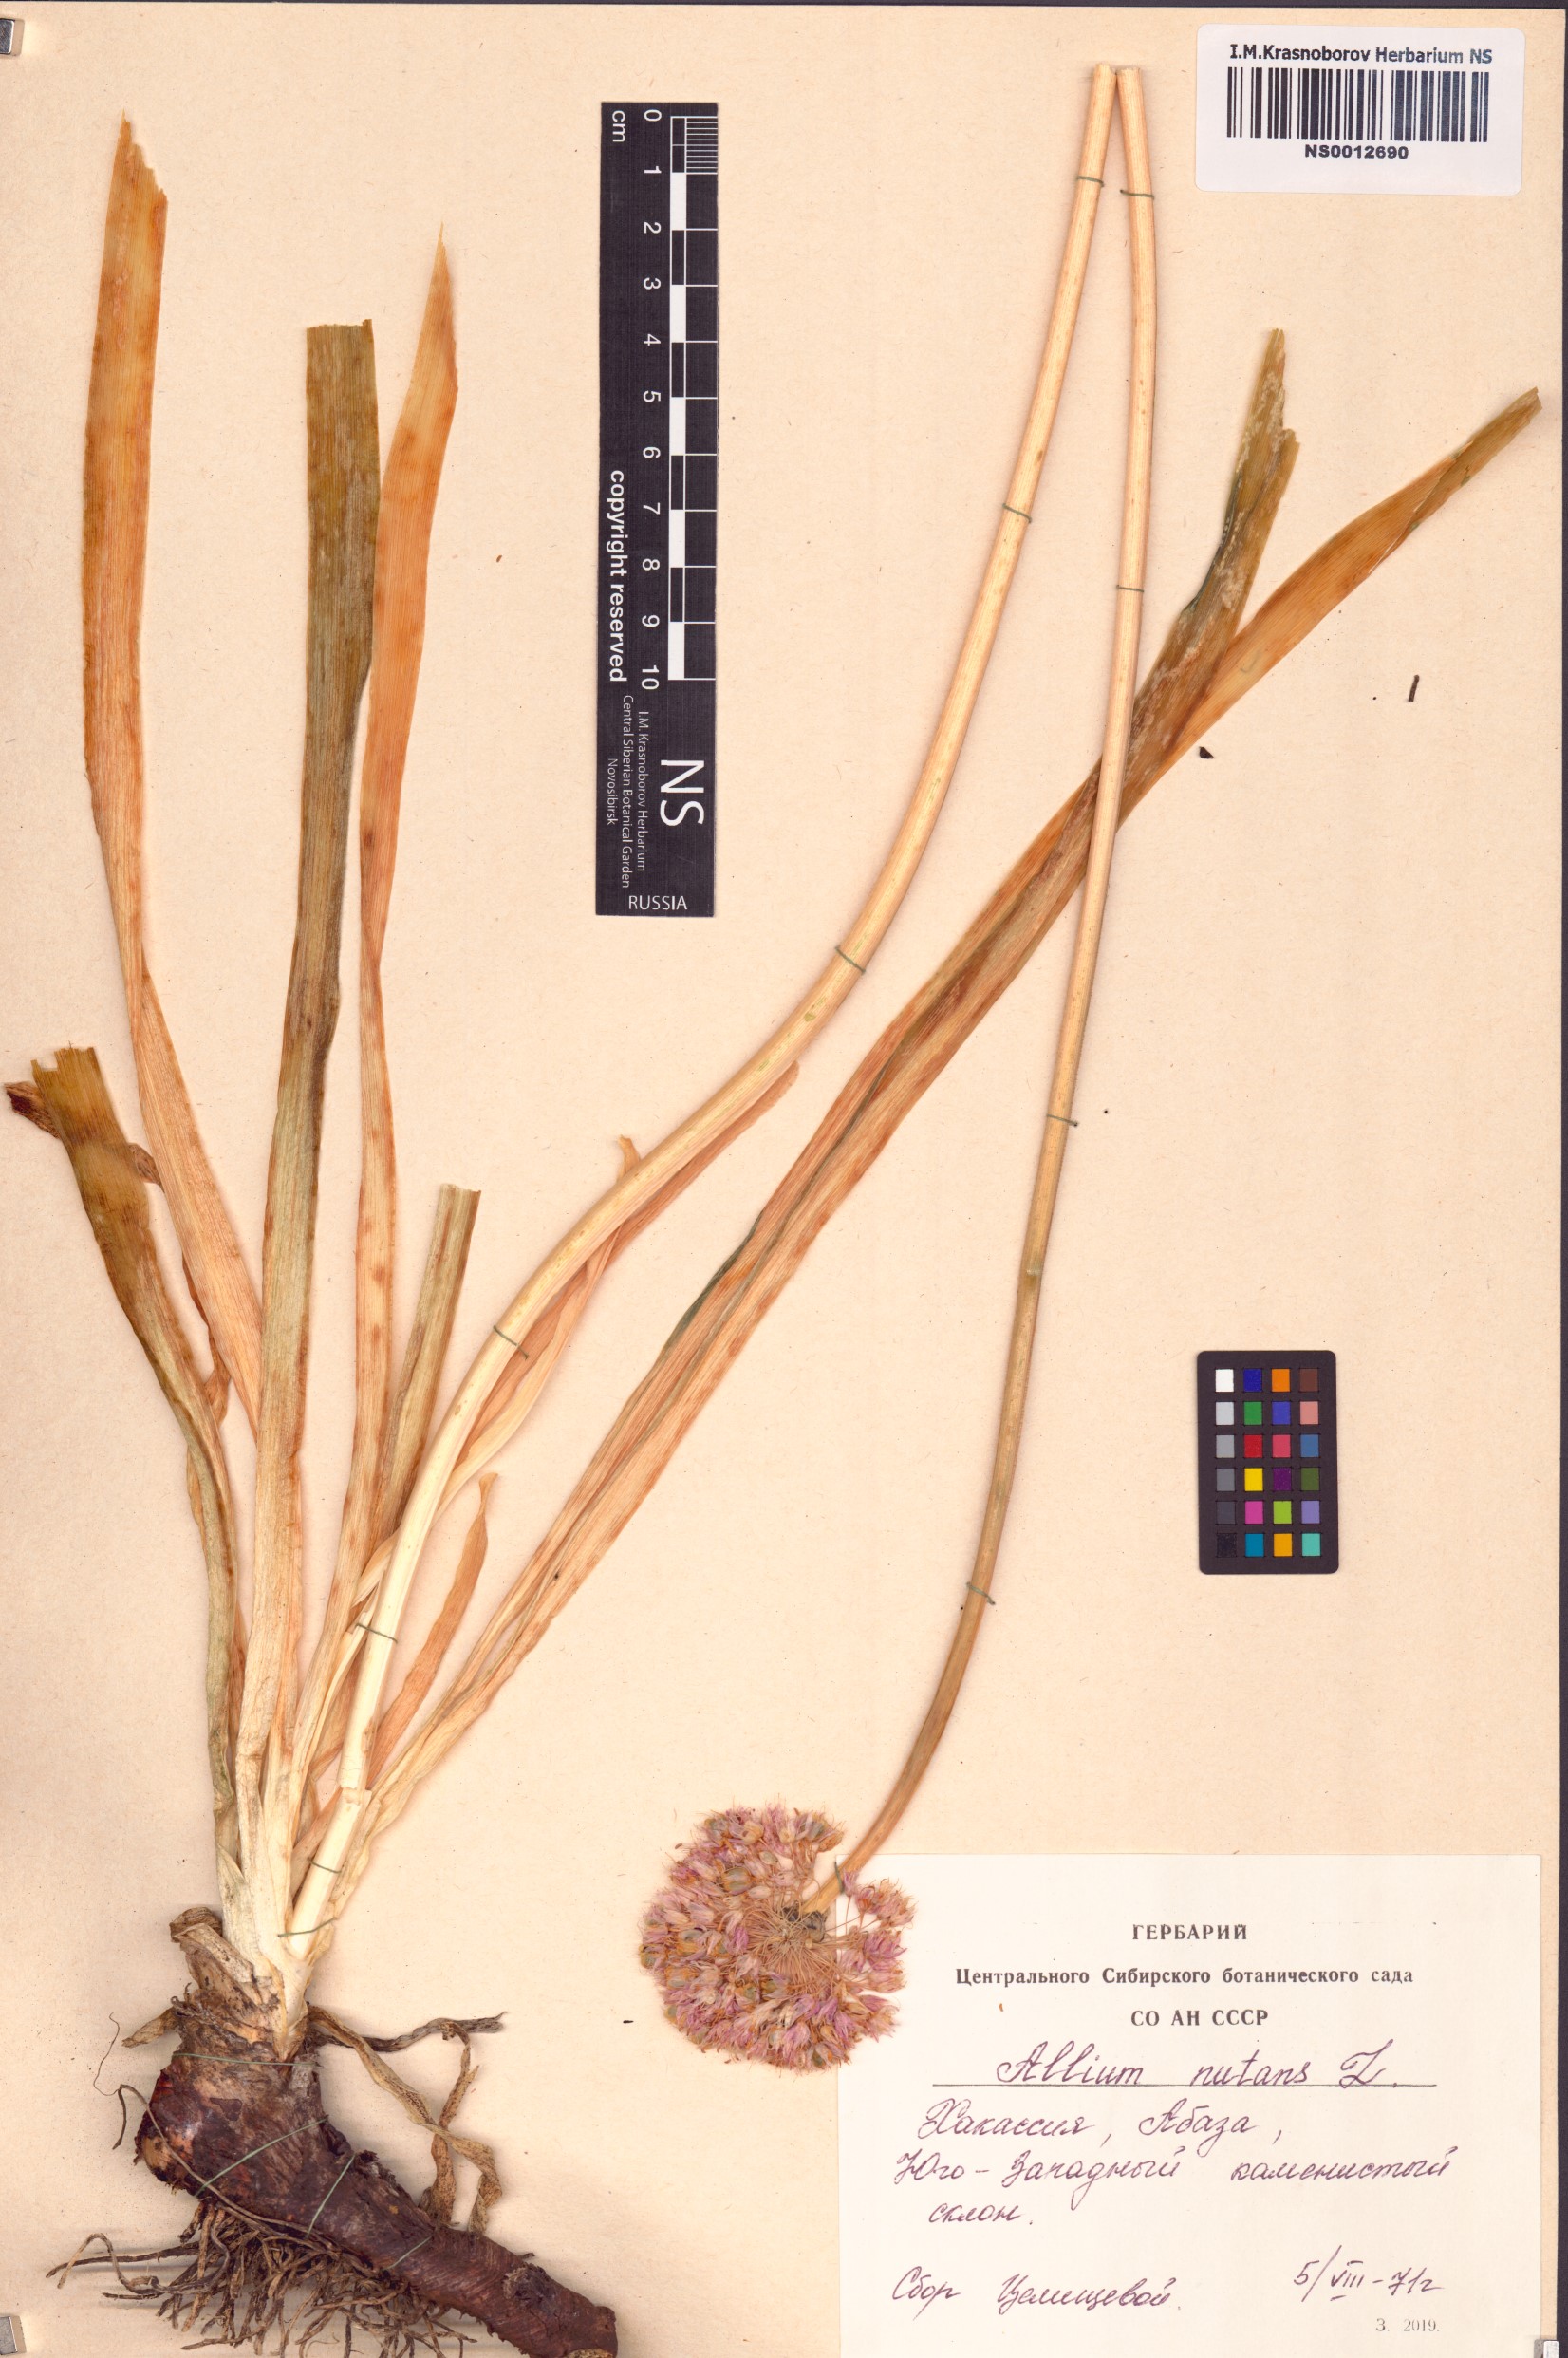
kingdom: Plantae
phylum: Tracheophyta
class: Liliopsida
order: Asparagales
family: Amaryllidaceae
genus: Allium
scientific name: Allium nutans
